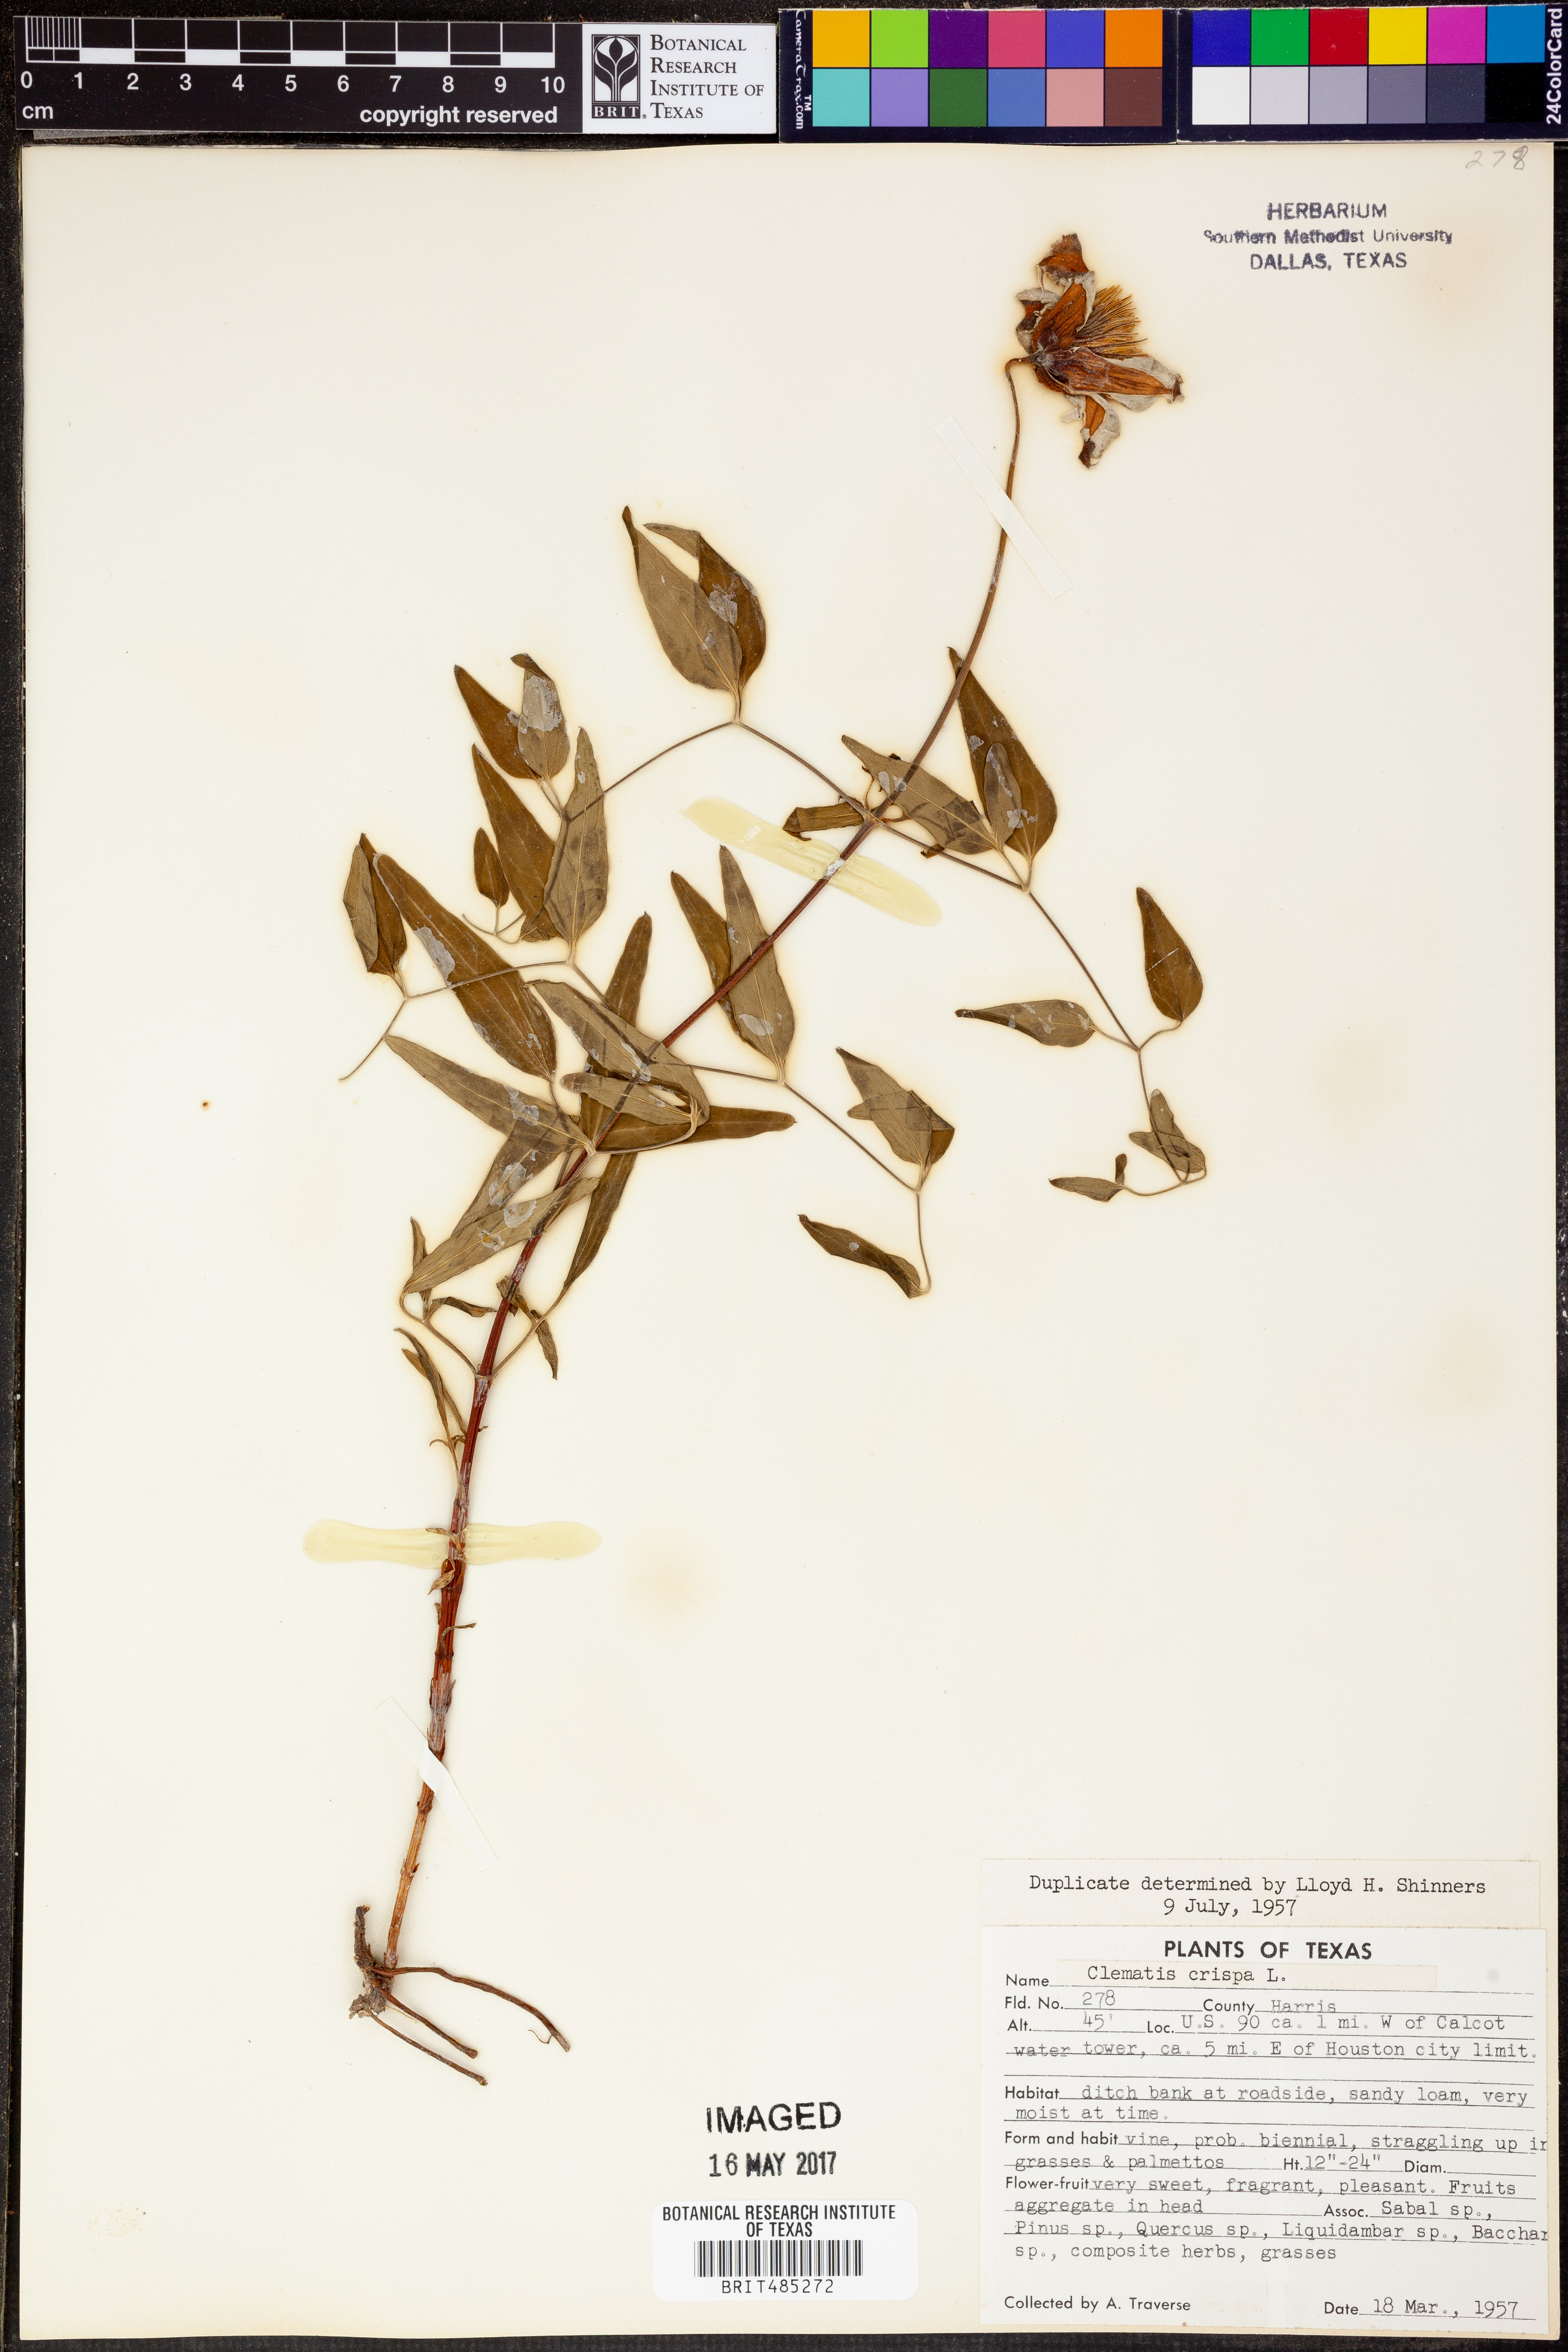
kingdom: Plantae
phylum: Tracheophyta
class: Magnoliopsida
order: Ranunculales
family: Ranunculaceae
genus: Clematis
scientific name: Clematis crispa
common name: Curly clematis
